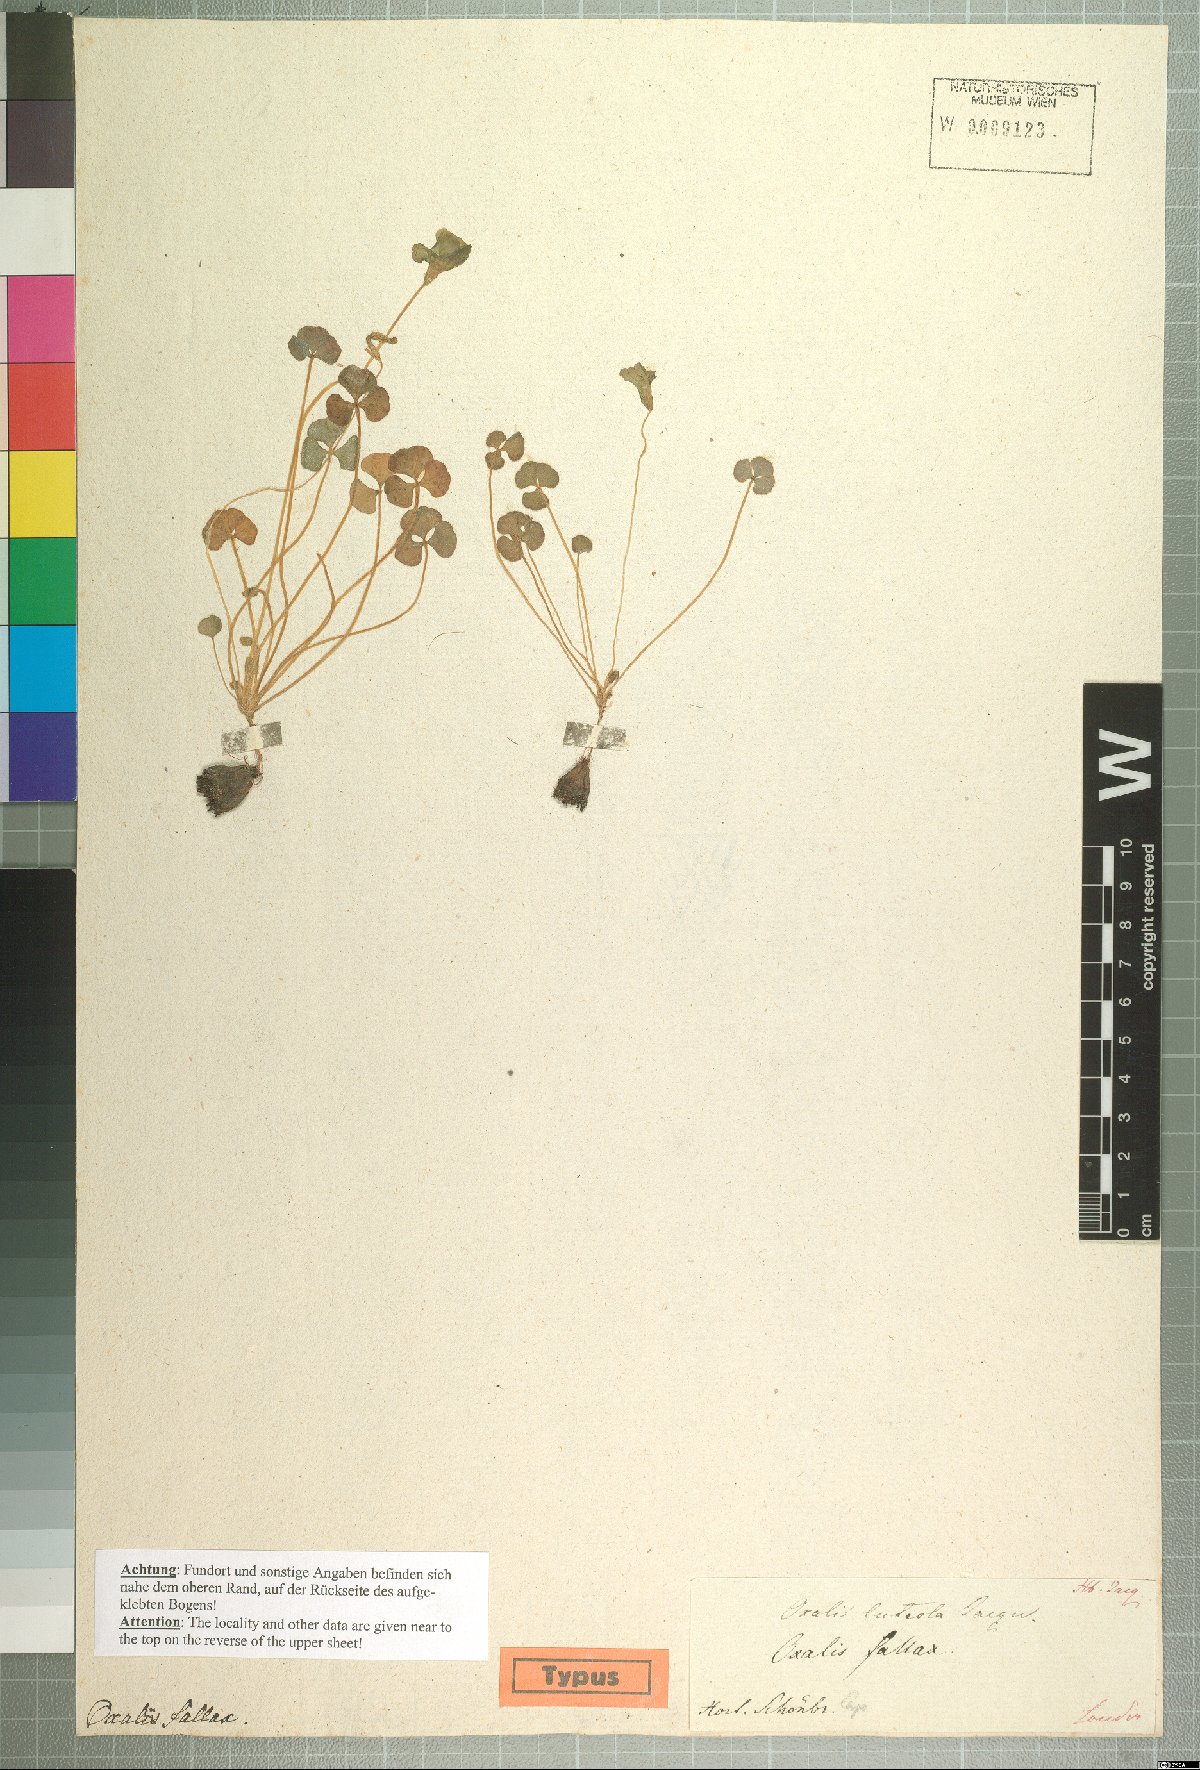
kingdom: Plantae
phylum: Tracheophyta
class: Magnoliopsida
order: Oxalidales
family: Oxalidaceae
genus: Oxalis
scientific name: Oxalis luteola
